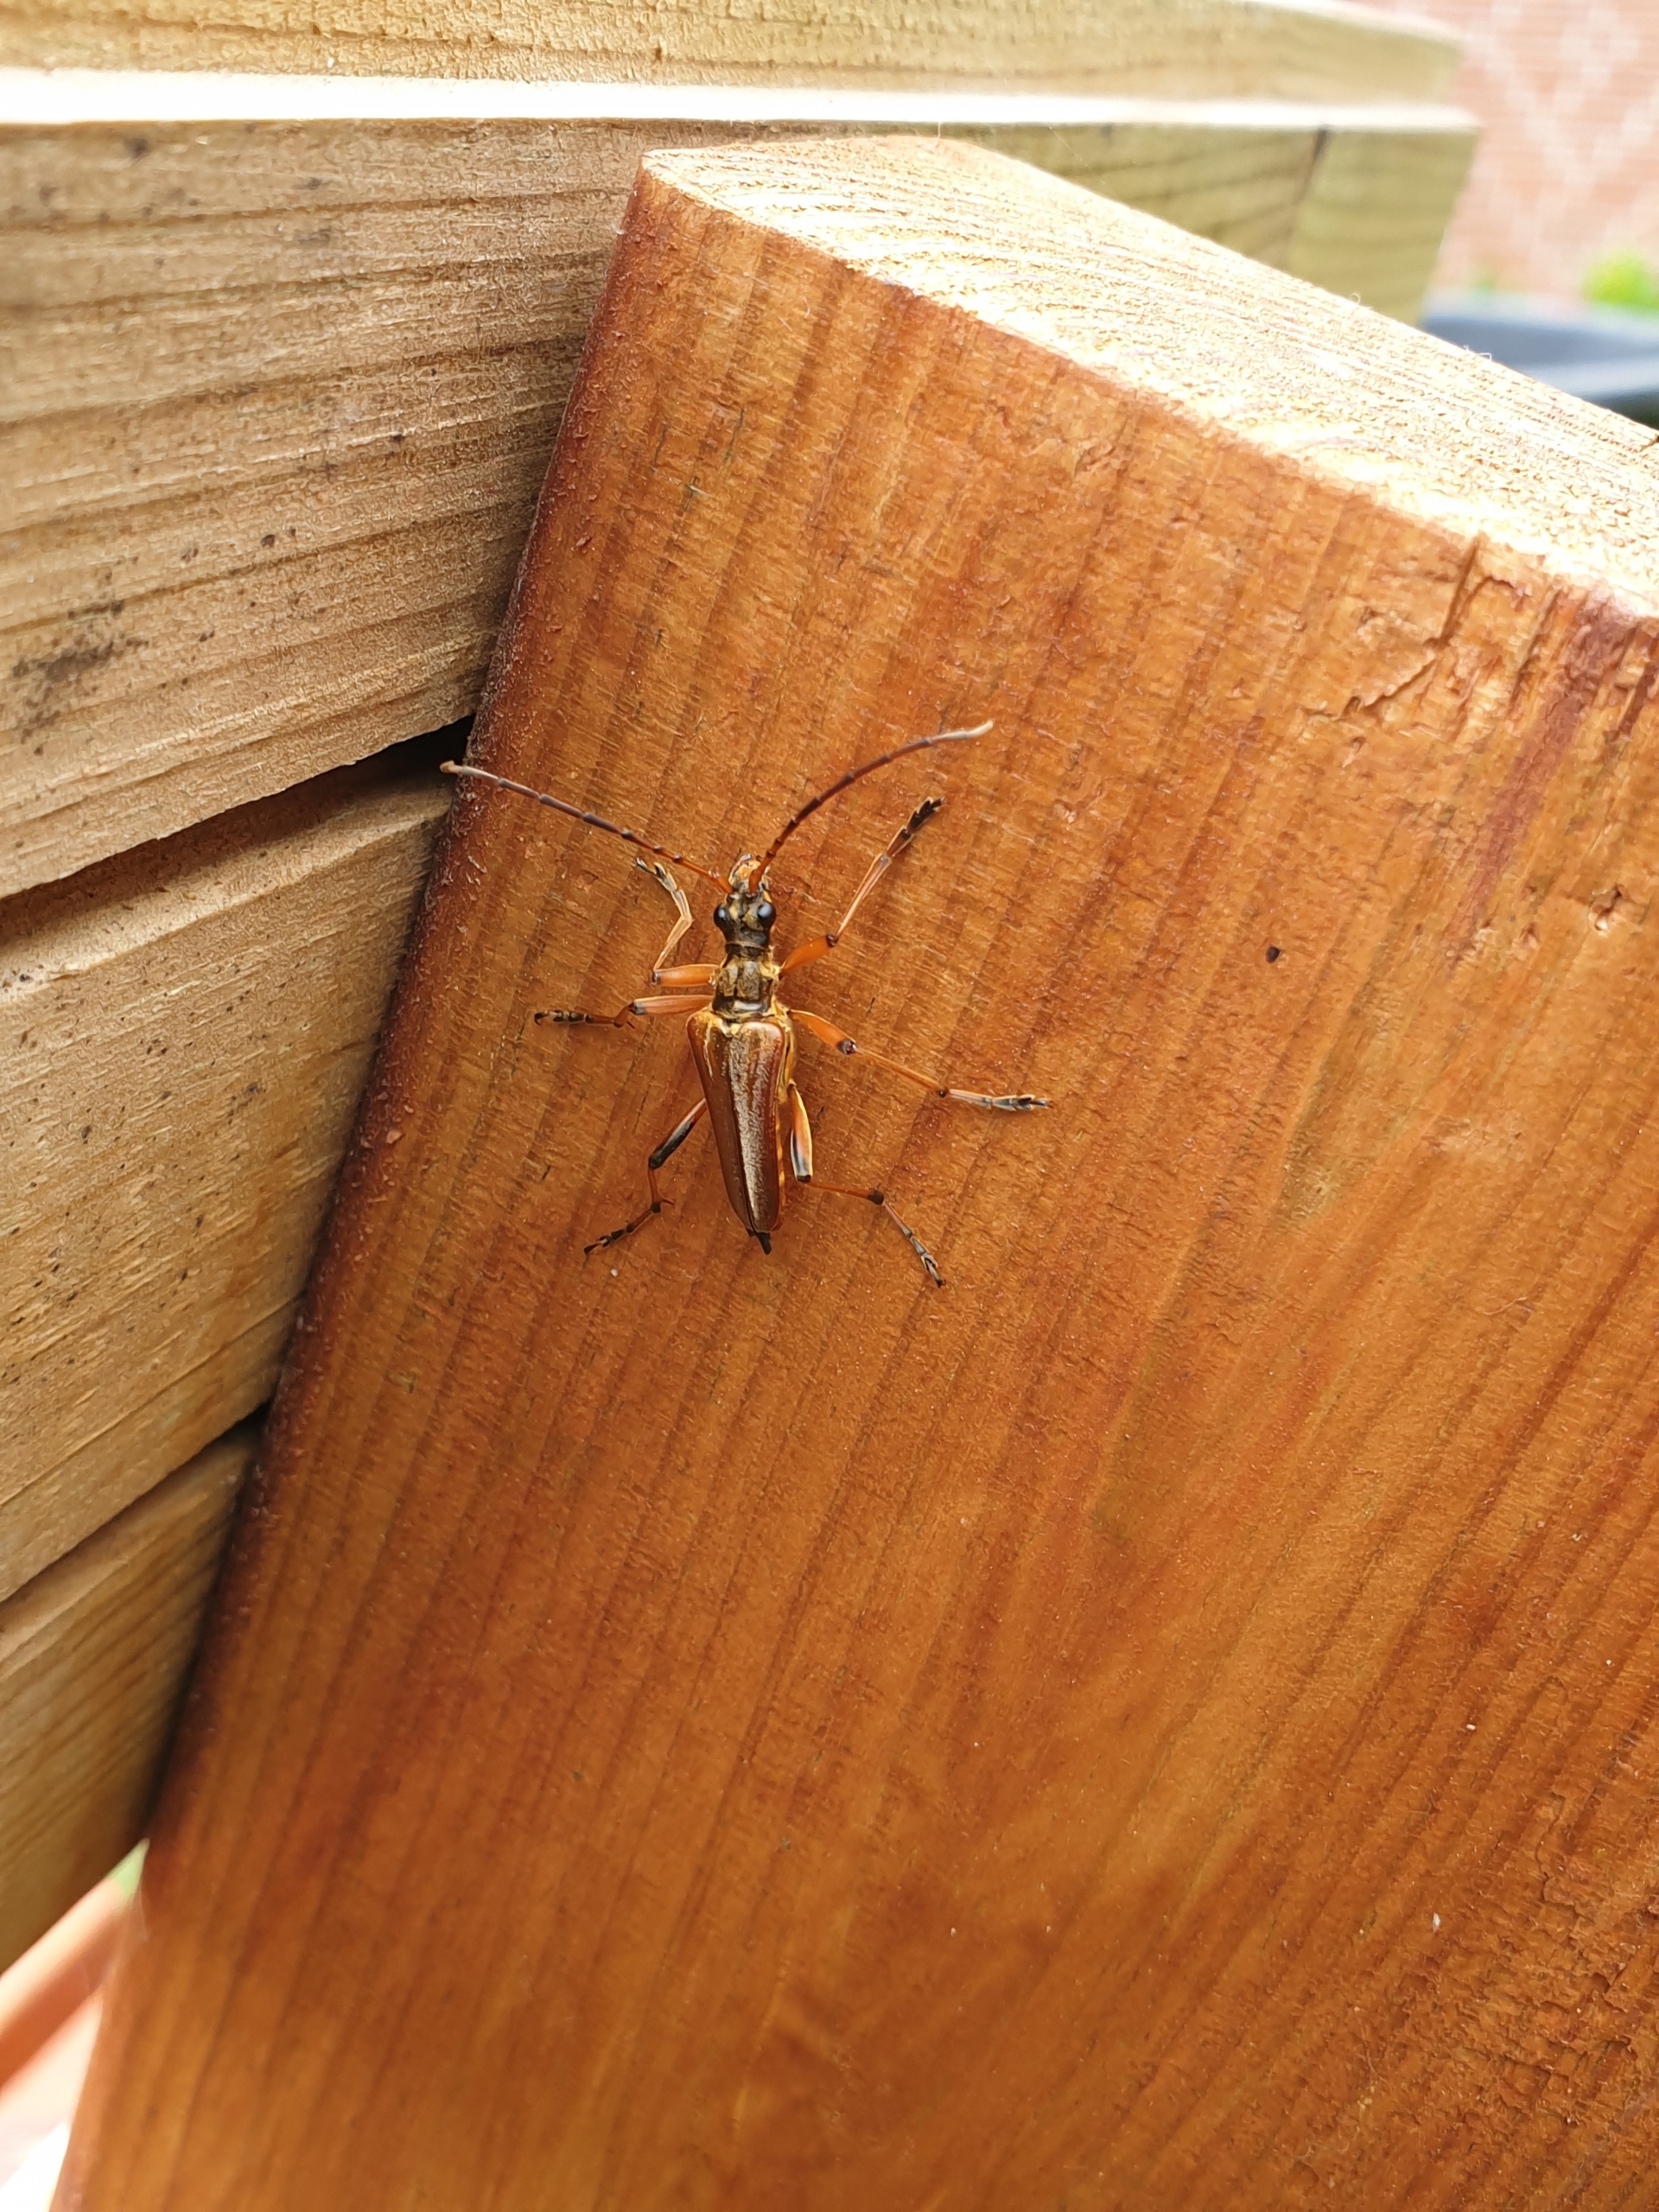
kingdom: Animalia
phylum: Arthropoda
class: Insecta
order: Coleoptera
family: Cerambycidae
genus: Stenocorus
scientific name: Stenocorus meridianus
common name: Smalbuk
